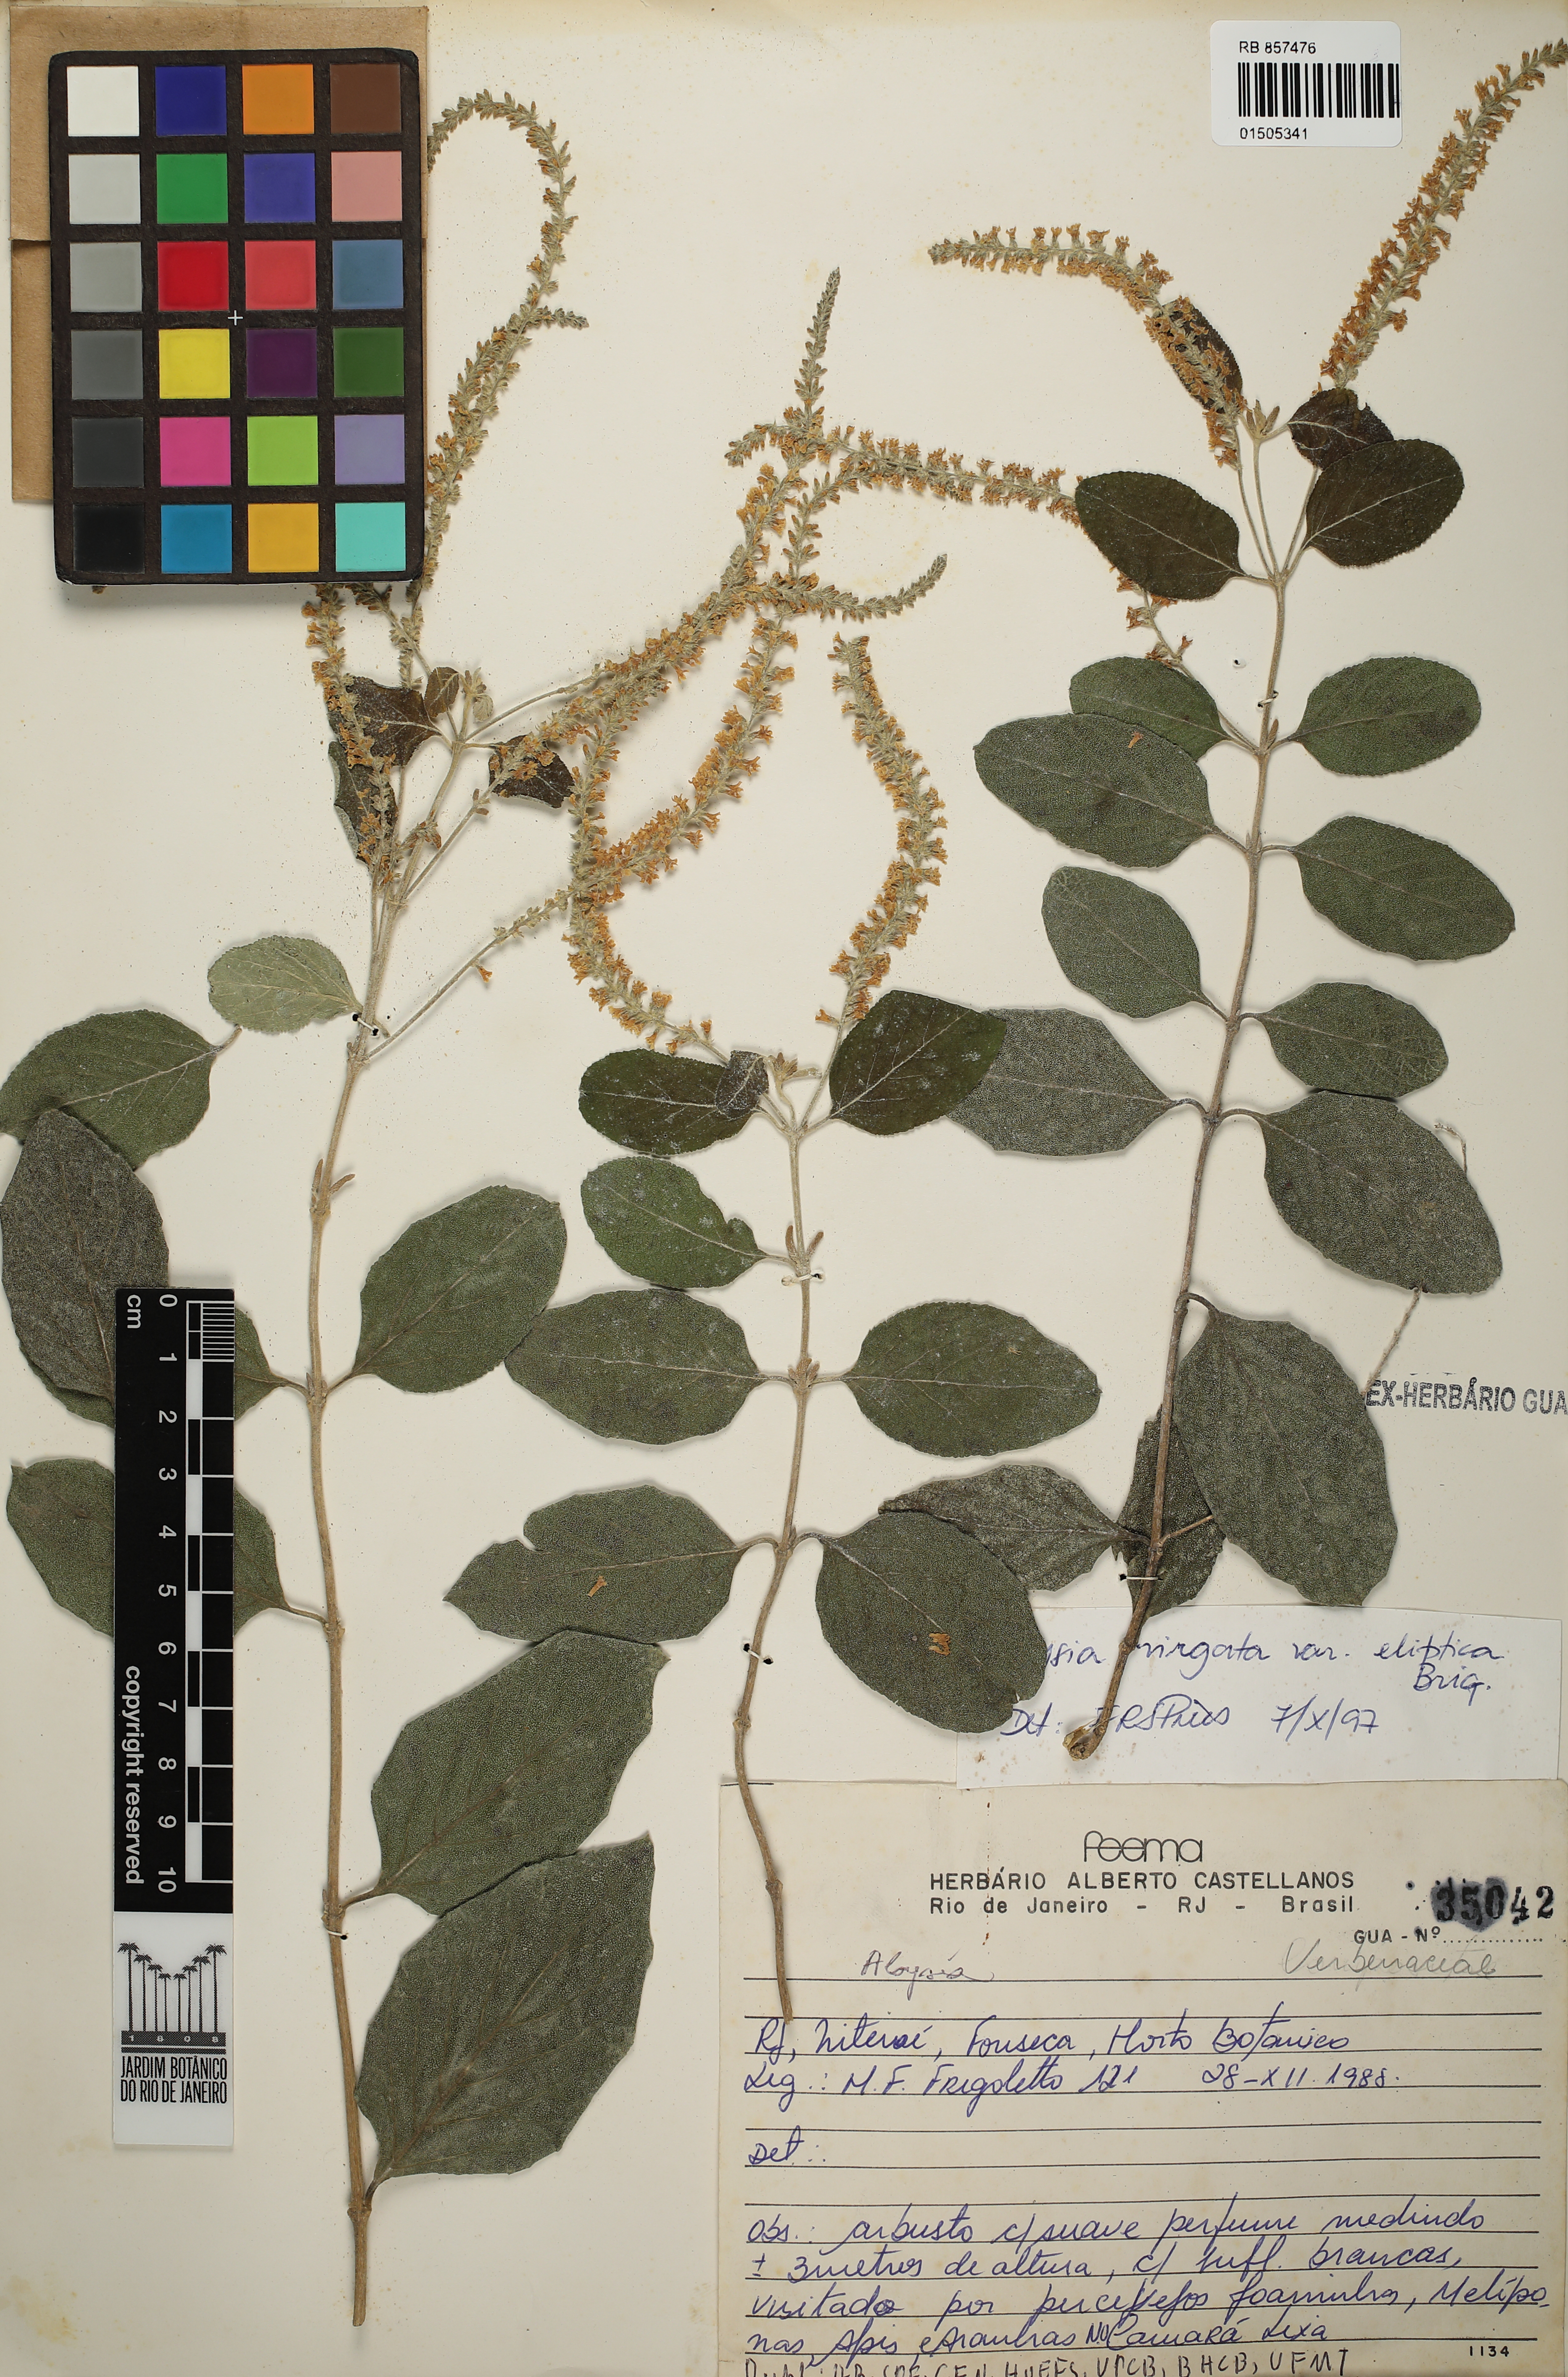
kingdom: Plantae
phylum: Tracheophyta
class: Magnoliopsida
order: Lamiales
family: Verbenaceae
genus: Aloysia
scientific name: Aloysia virgata
